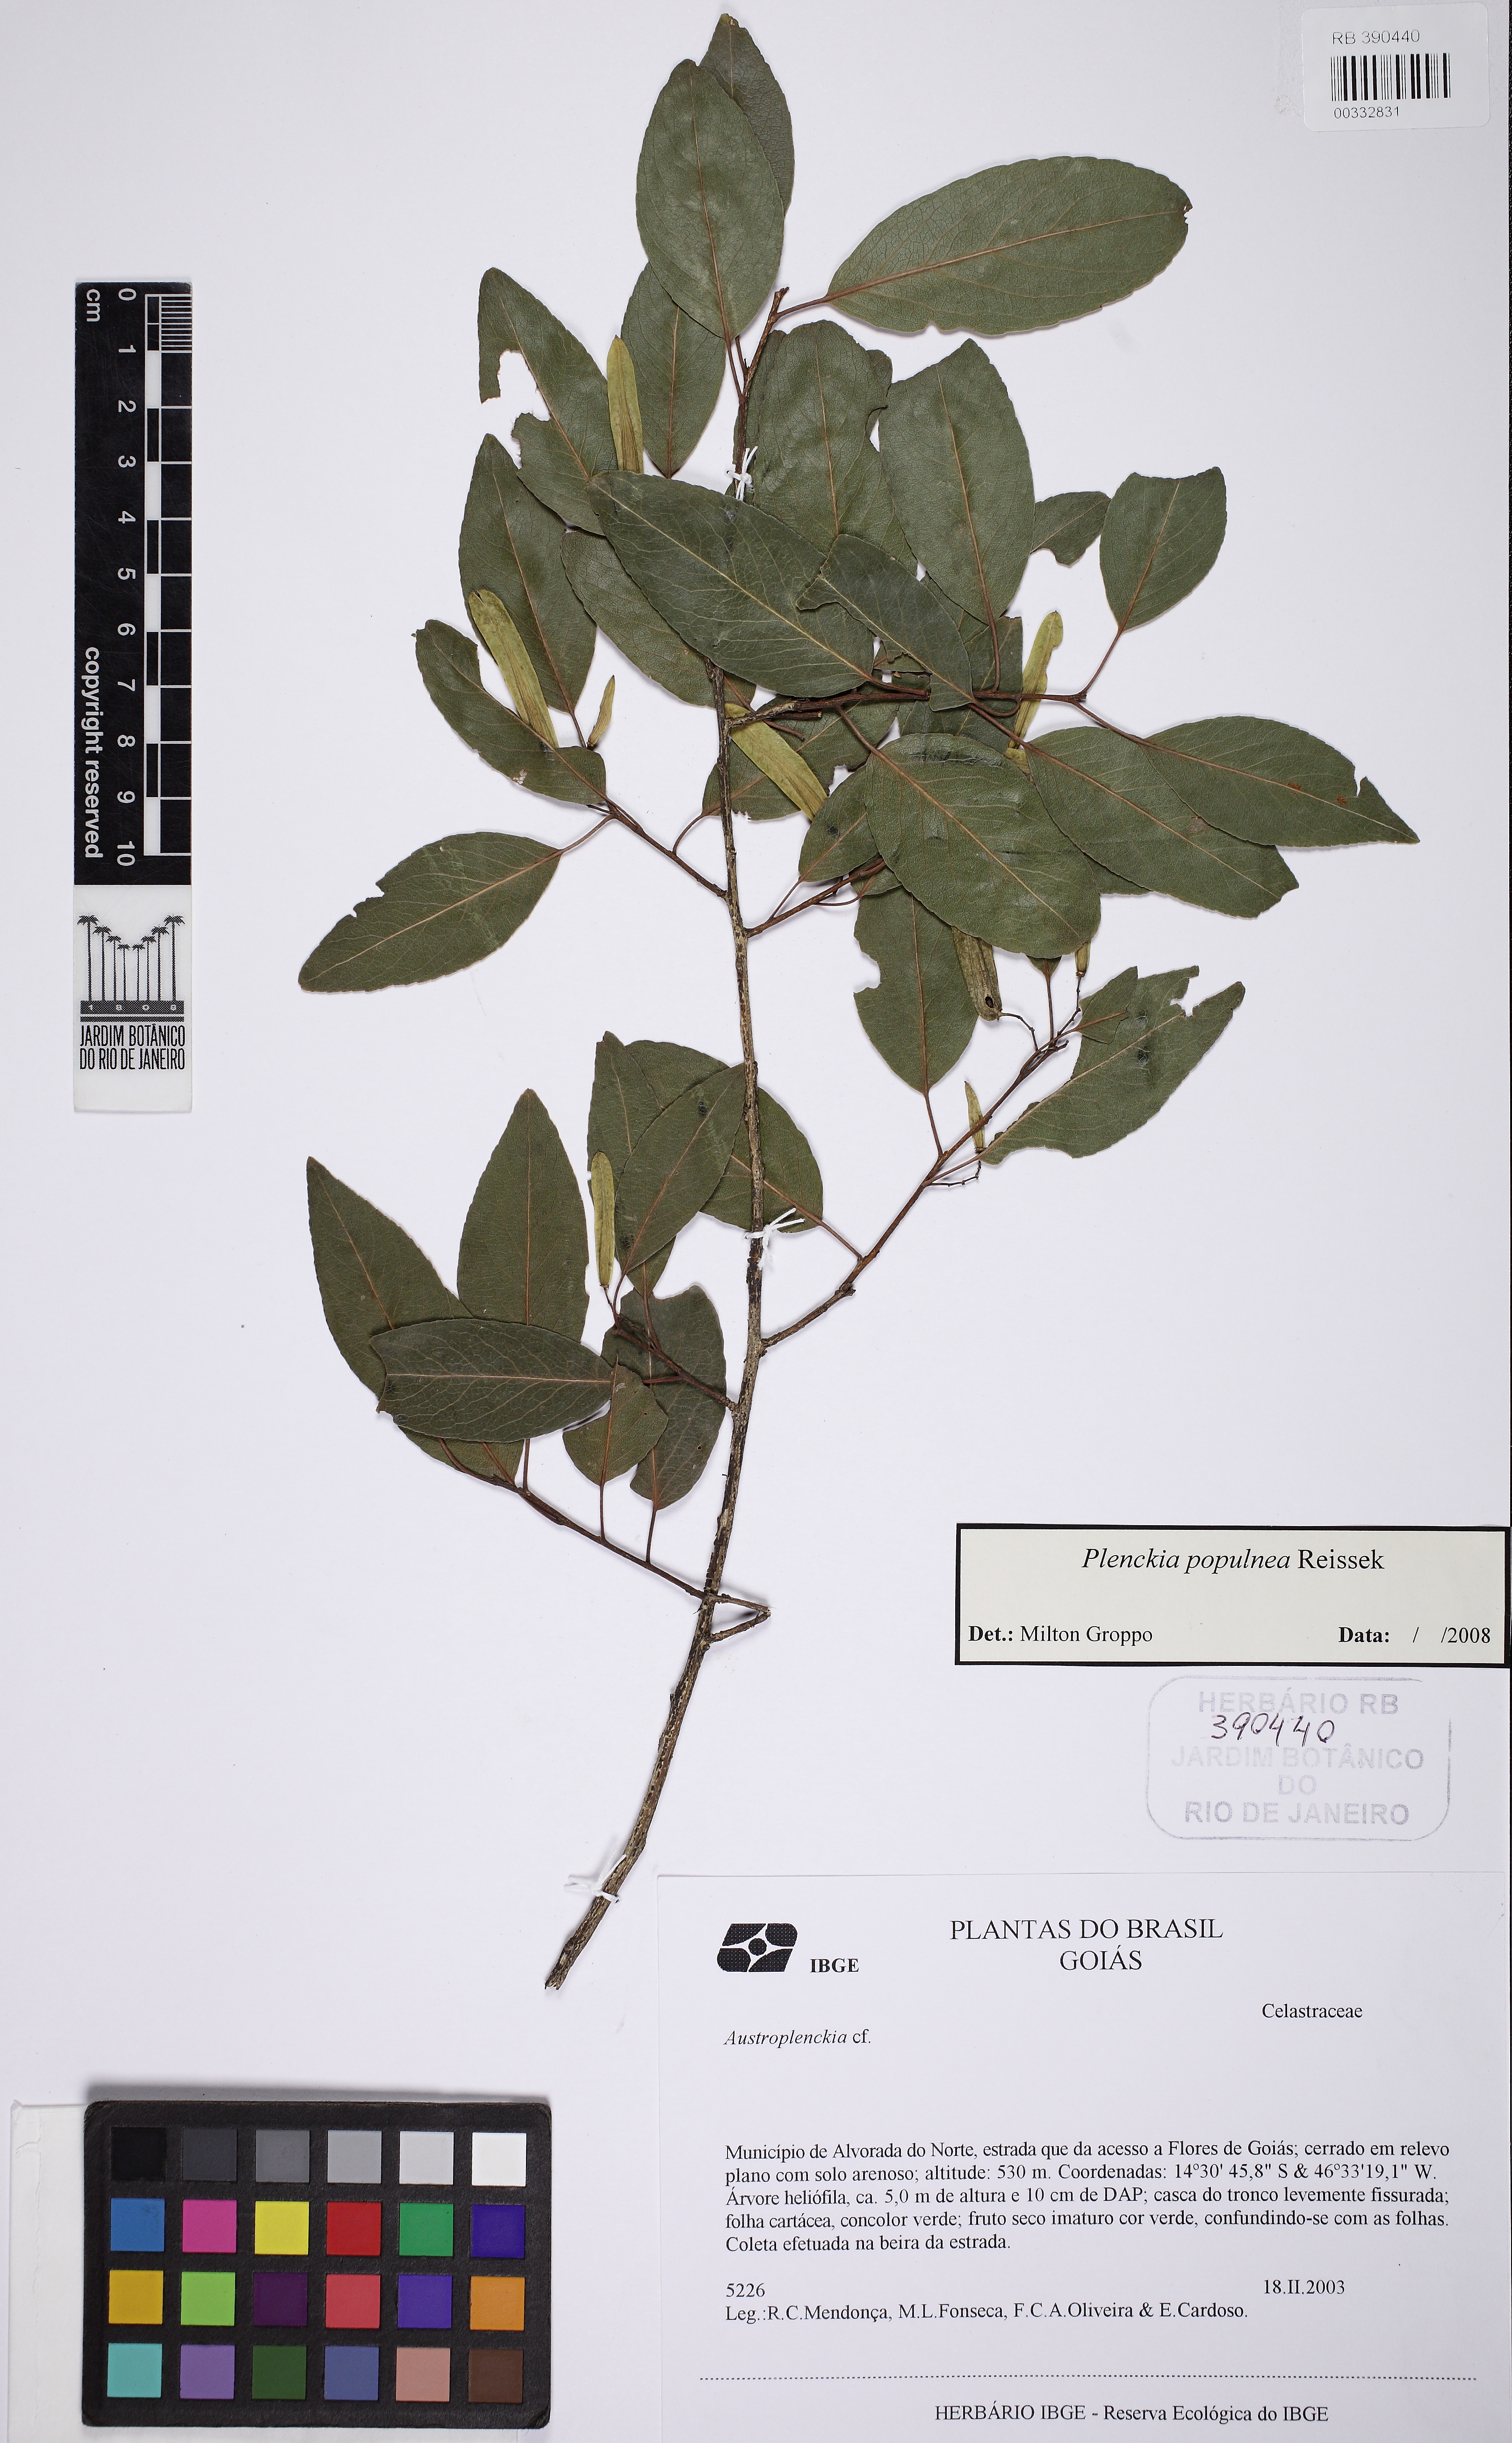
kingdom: Plantae
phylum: Tracheophyta
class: Magnoliopsida
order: Celastrales
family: Celastraceae
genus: Plenckia
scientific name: Plenckia populnea
